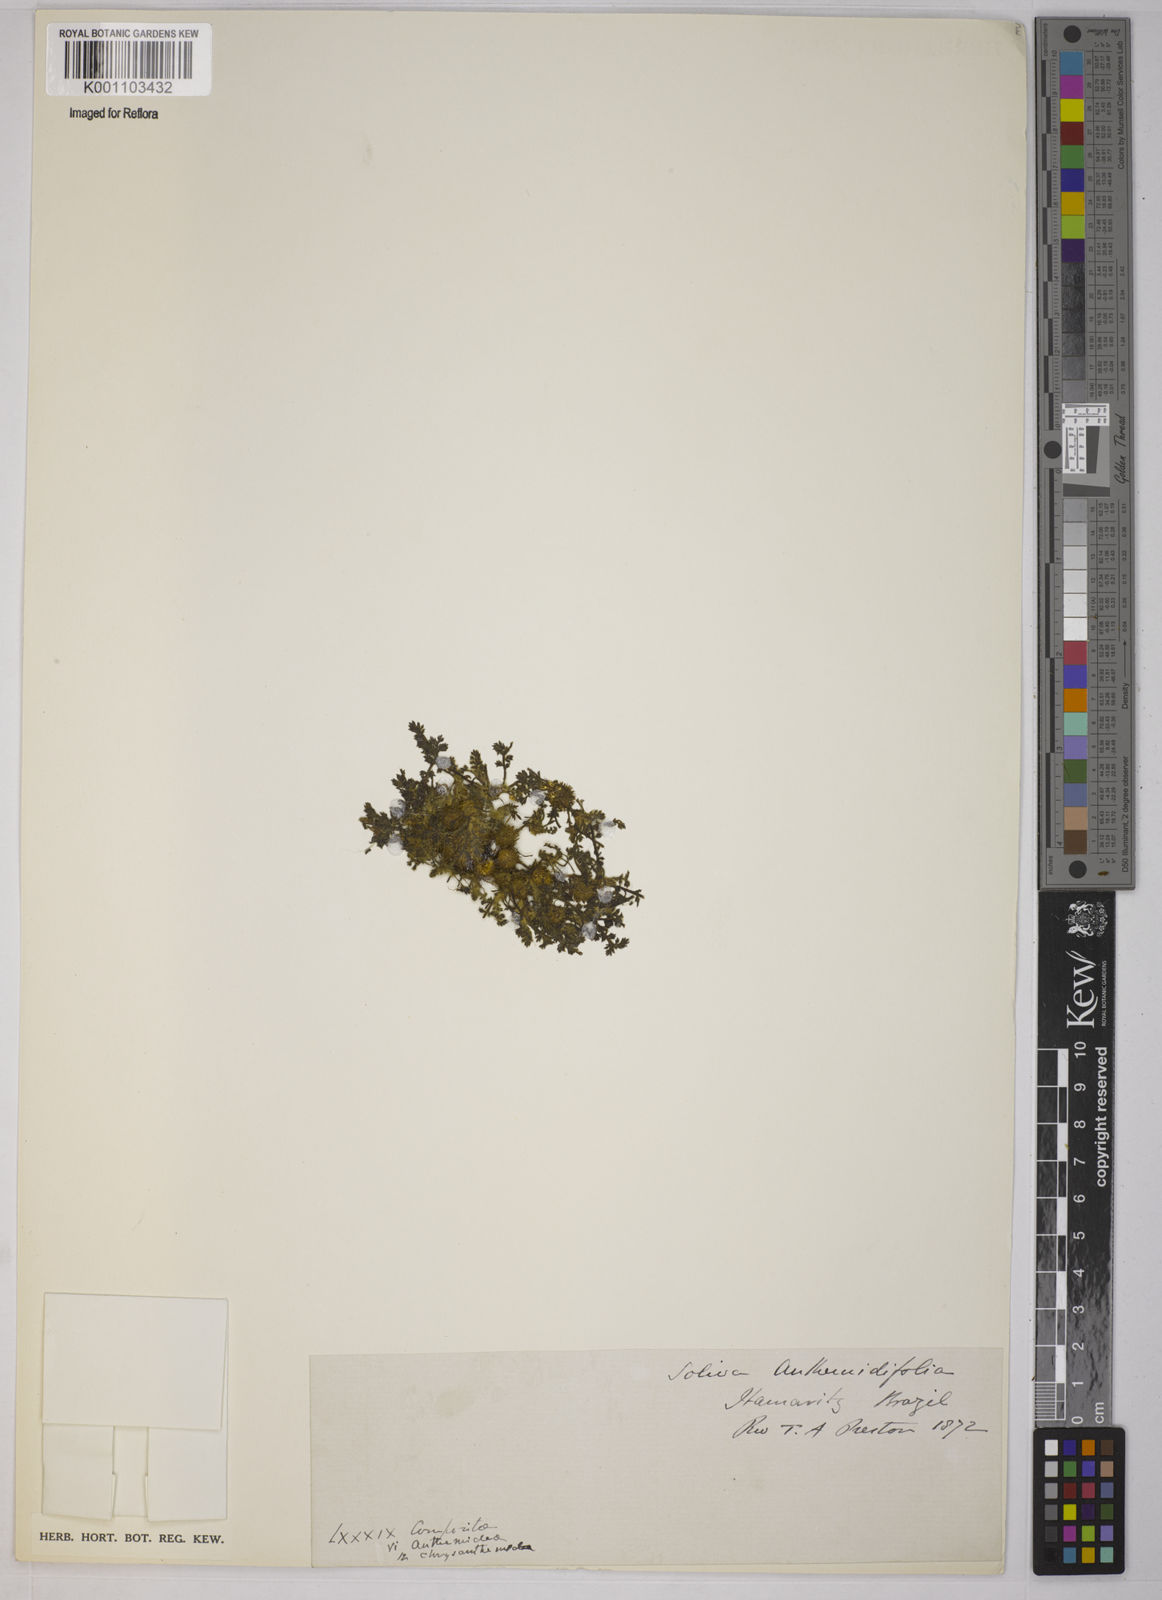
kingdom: Plantae
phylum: Tracheophyta
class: Magnoliopsida
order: Asterales
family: Asteraceae
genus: Soliva
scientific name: Soliva
